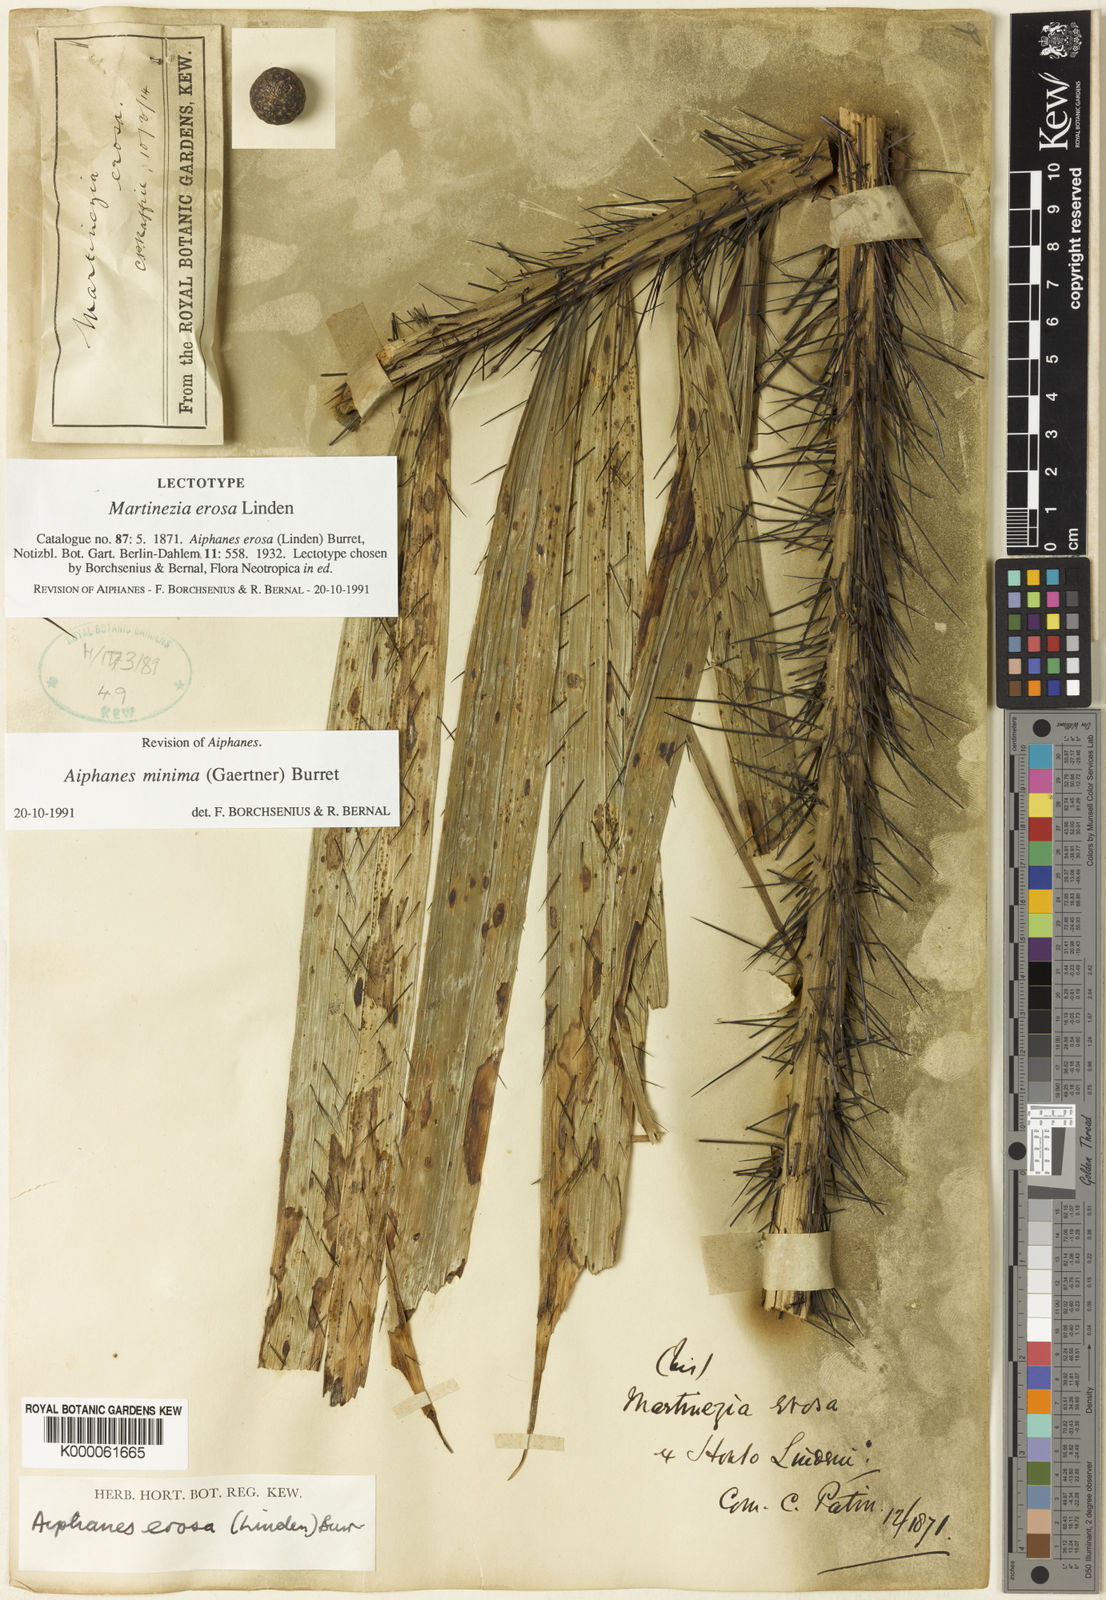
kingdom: Plantae
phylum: Tracheophyta
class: Liliopsida
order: Arecales
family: Arecaceae
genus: Aiphanes
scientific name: Aiphanes minima
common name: Grigri
